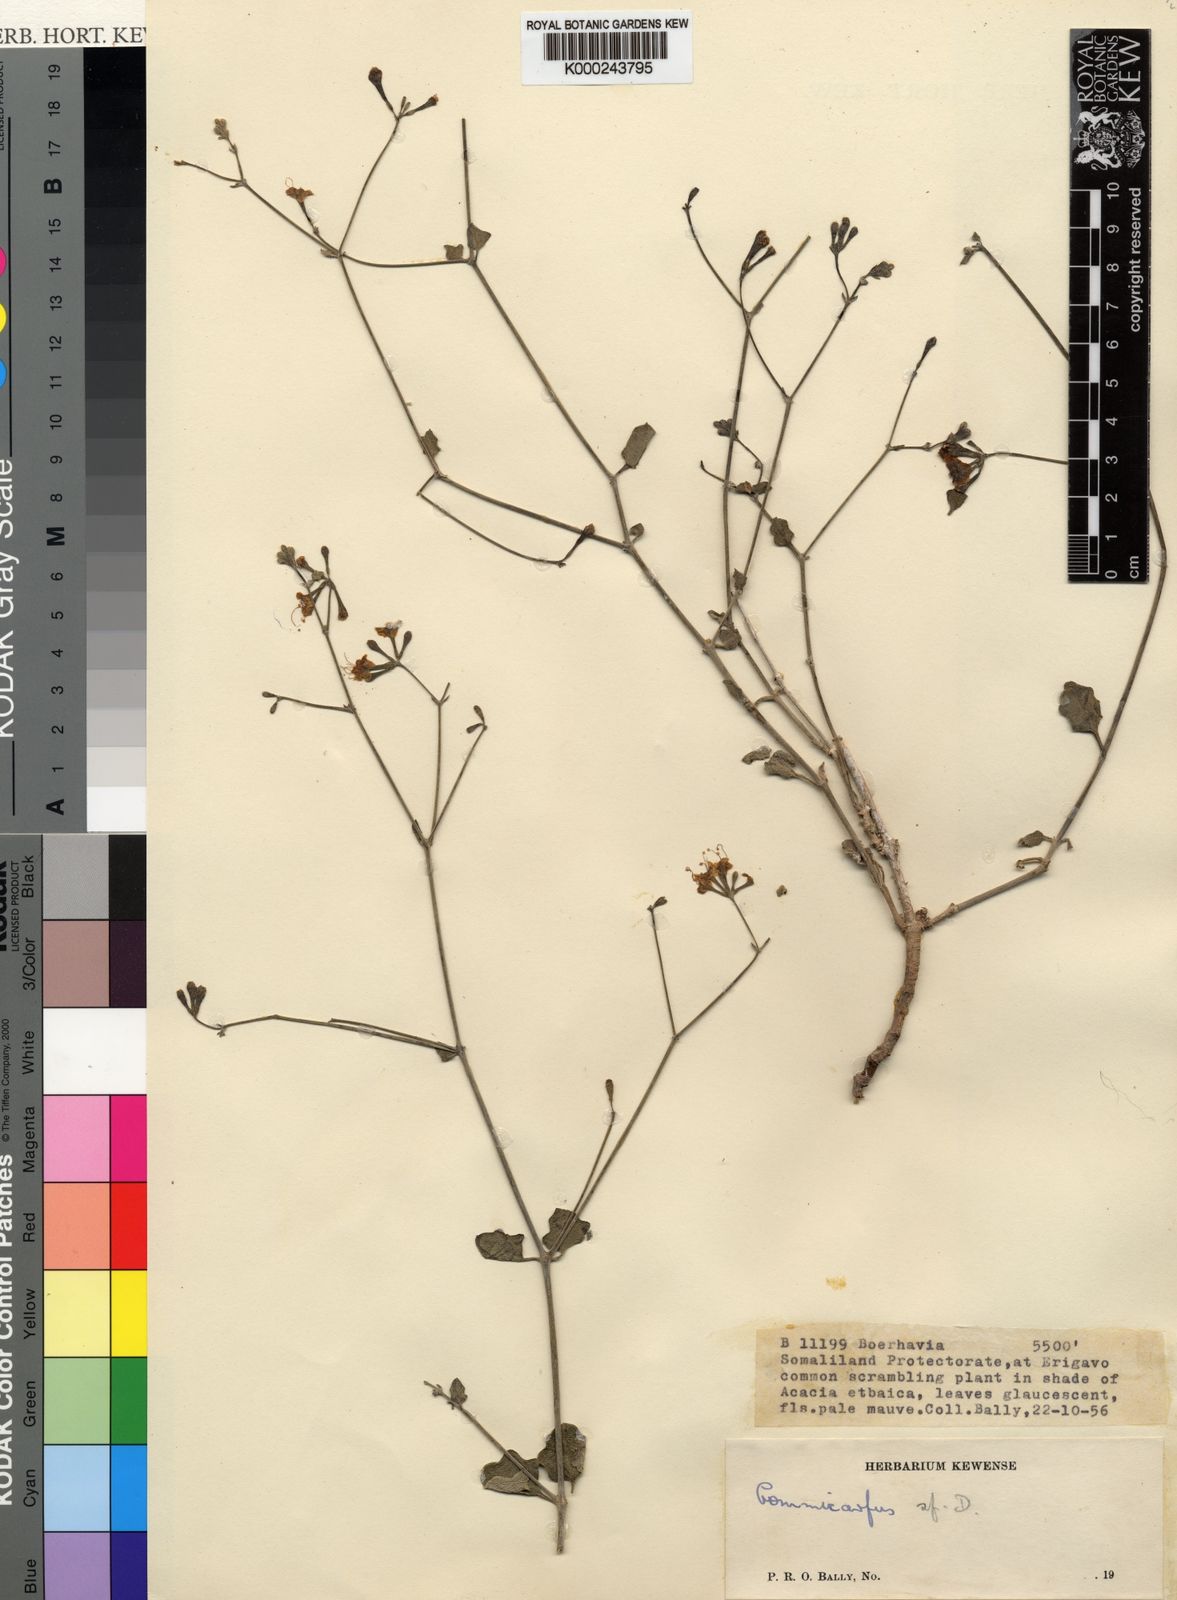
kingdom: Plantae
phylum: Tracheophyta
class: Magnoliopsida
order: Caryophyllales
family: Nyctaginaceae
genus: Commicarpus
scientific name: Commicarpus sinuatus
